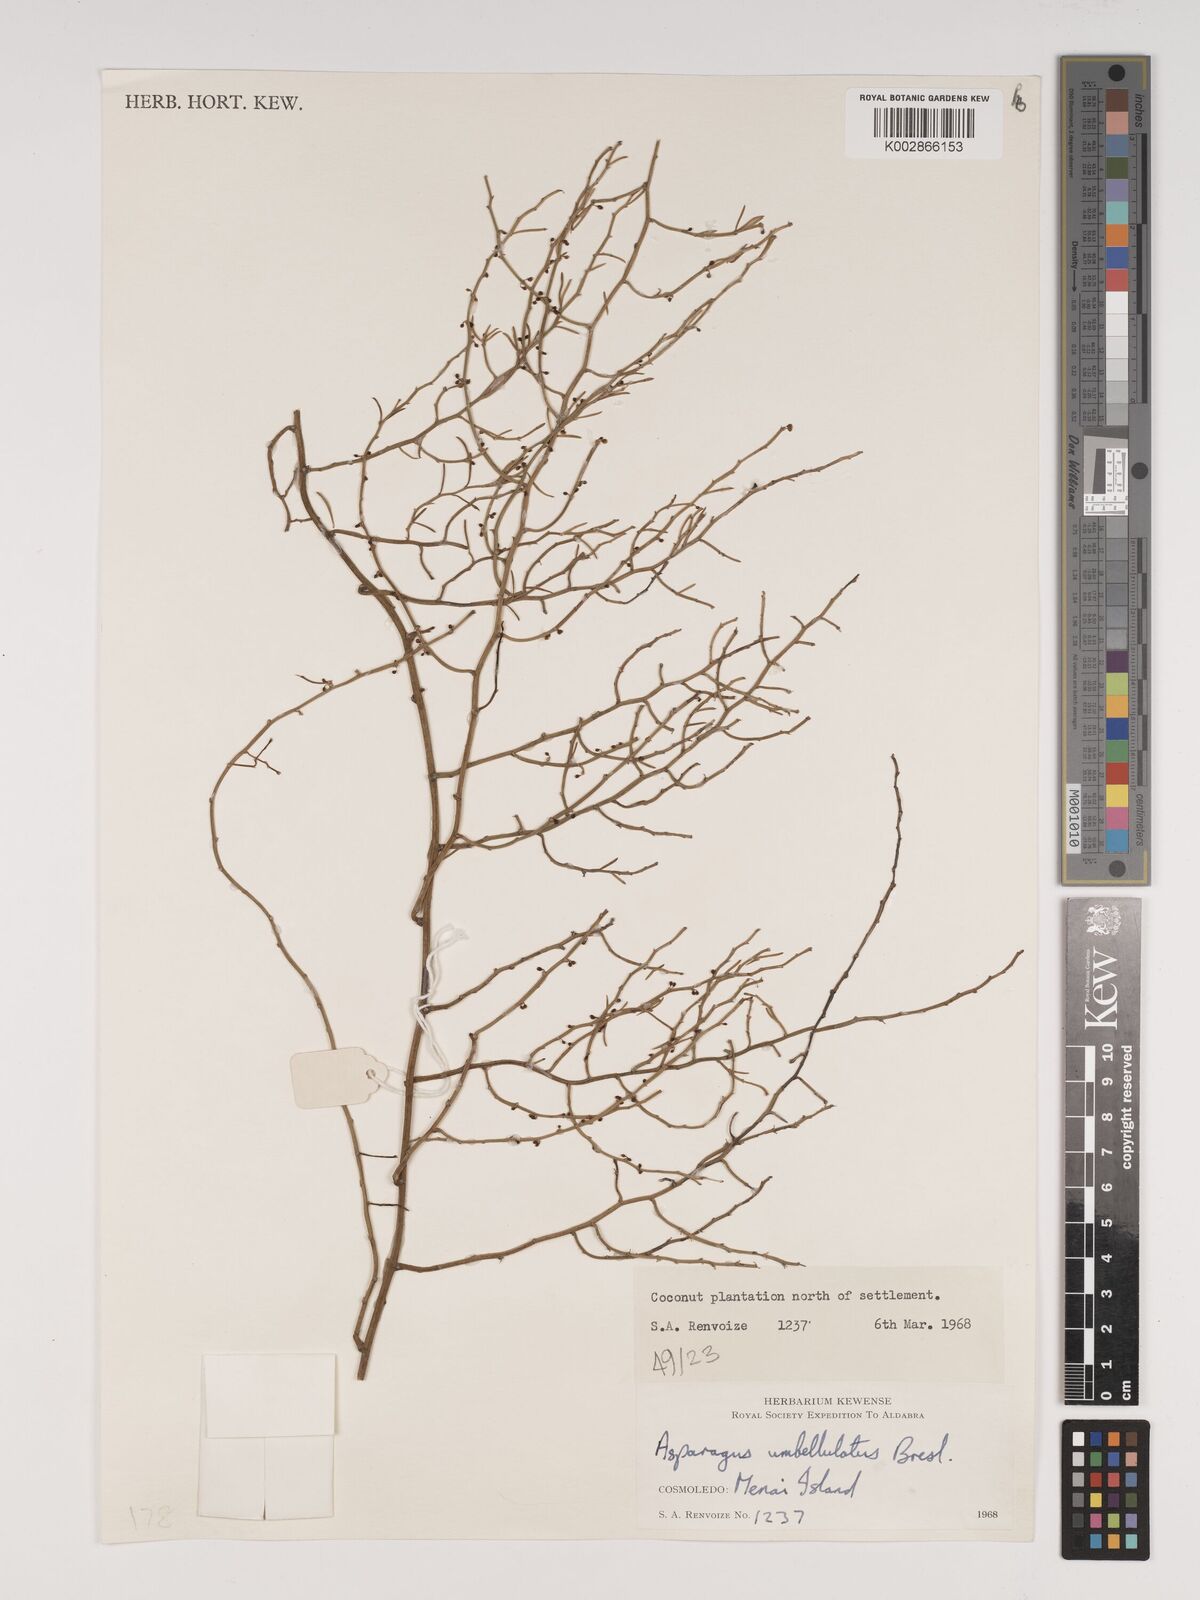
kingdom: Plantae
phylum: Tracheophyta
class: Liliopsida
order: Asparagales
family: Asparagaceae
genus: Asparagus
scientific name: Asparagus umbellulatus
